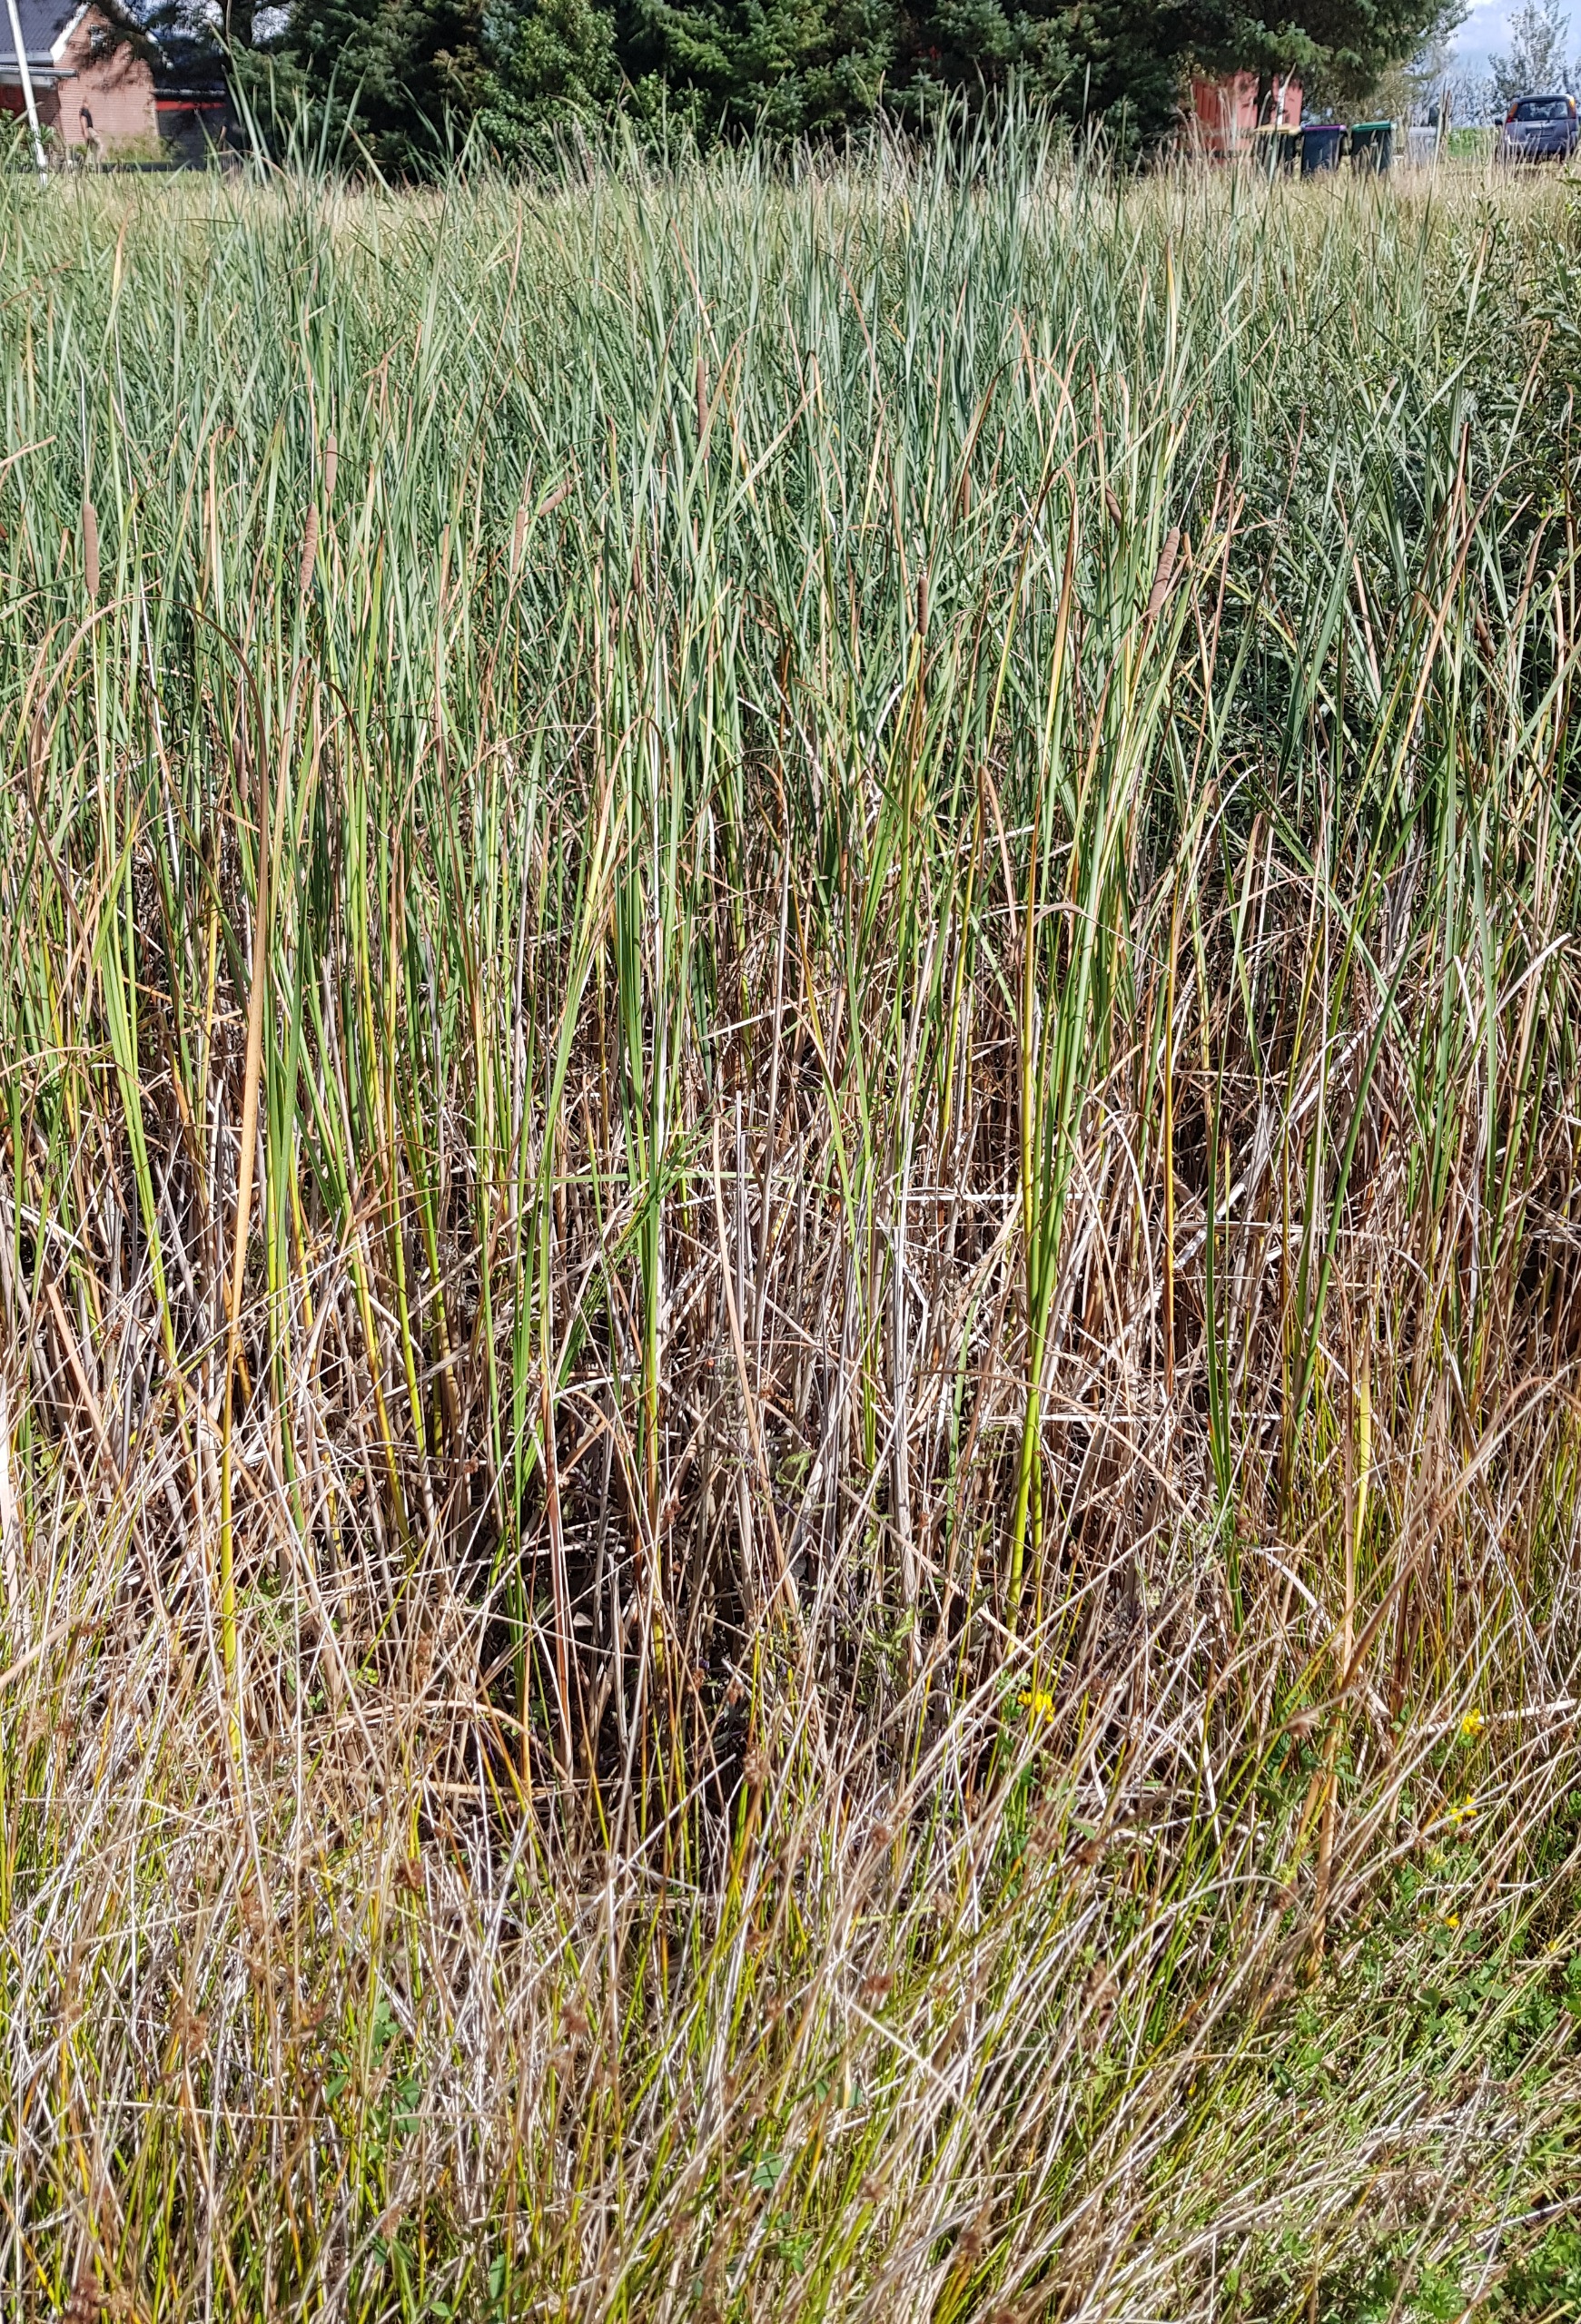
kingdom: Plantae
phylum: Tracheophyta
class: Liliopsida
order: Poales
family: Typhaceae
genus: Typha
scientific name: Typha angustifolia
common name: Smalbladet dunhammer
